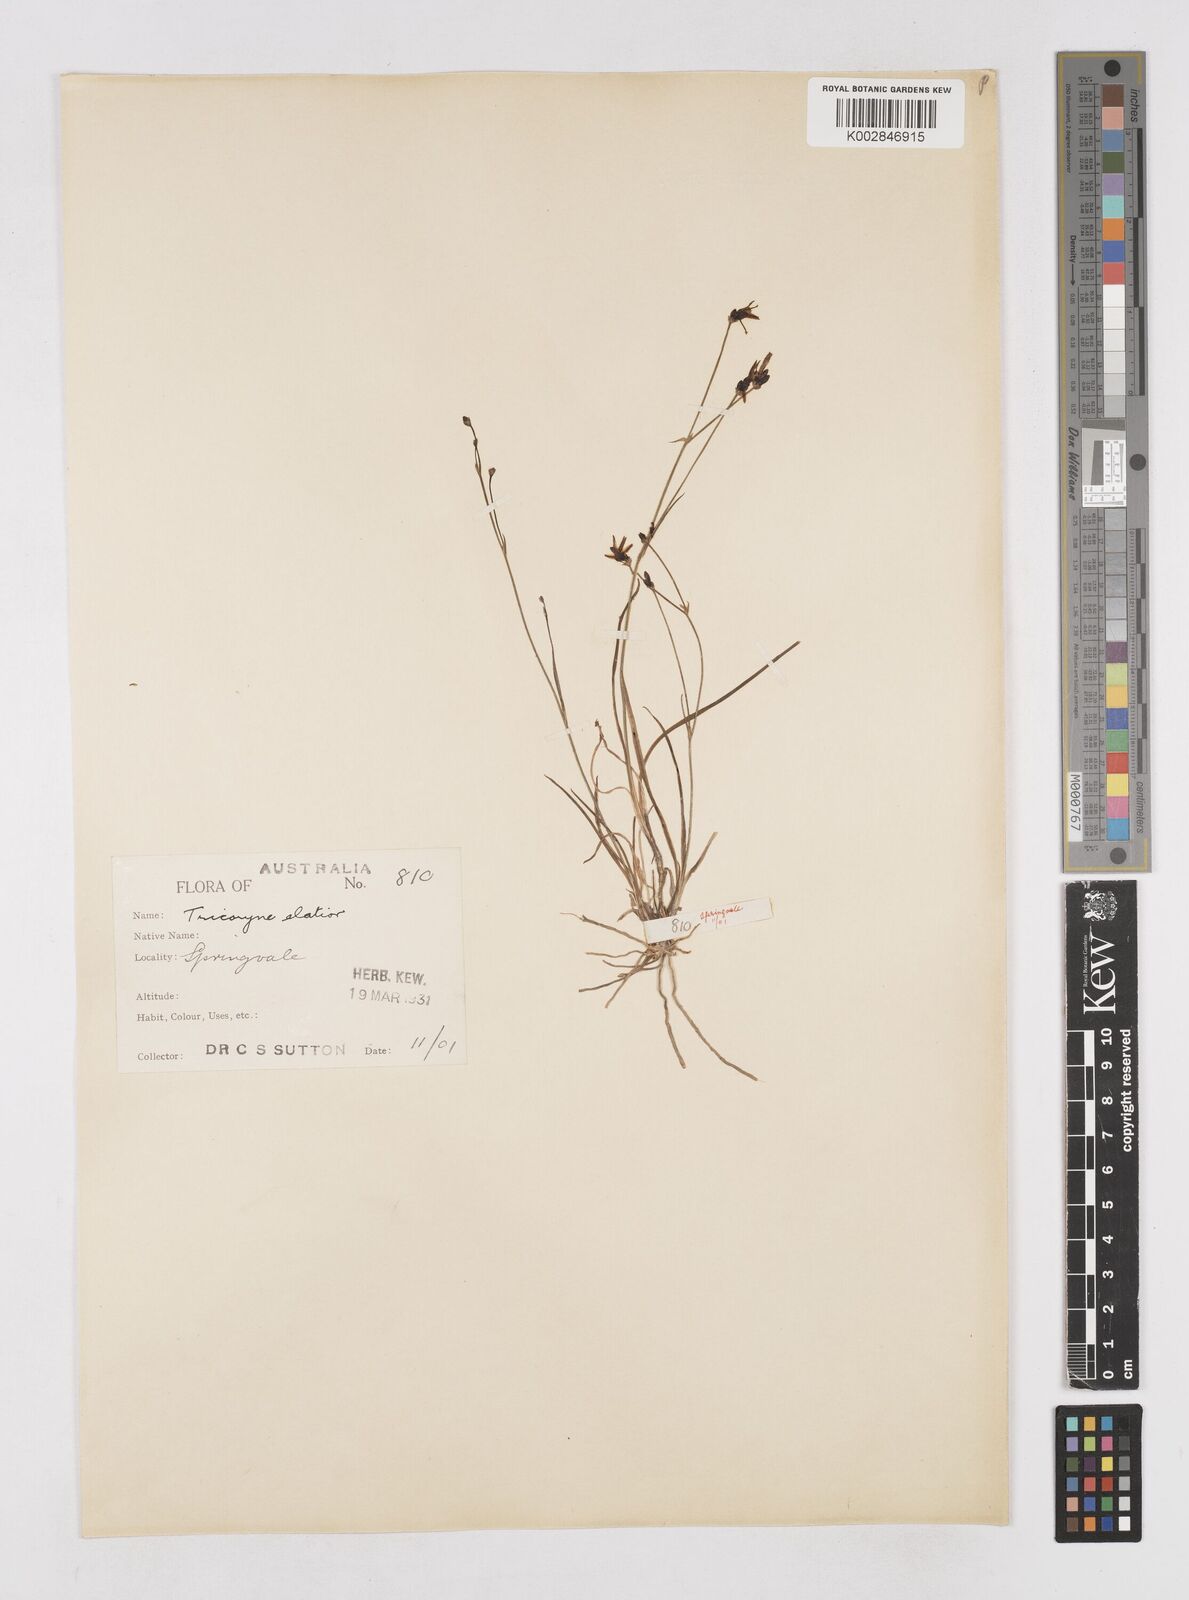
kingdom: Plantae
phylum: Tracheophyta
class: Liliopsida
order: Asparagales
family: Asphodelaceae
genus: Tricoryne
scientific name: Tricoryne elatior
